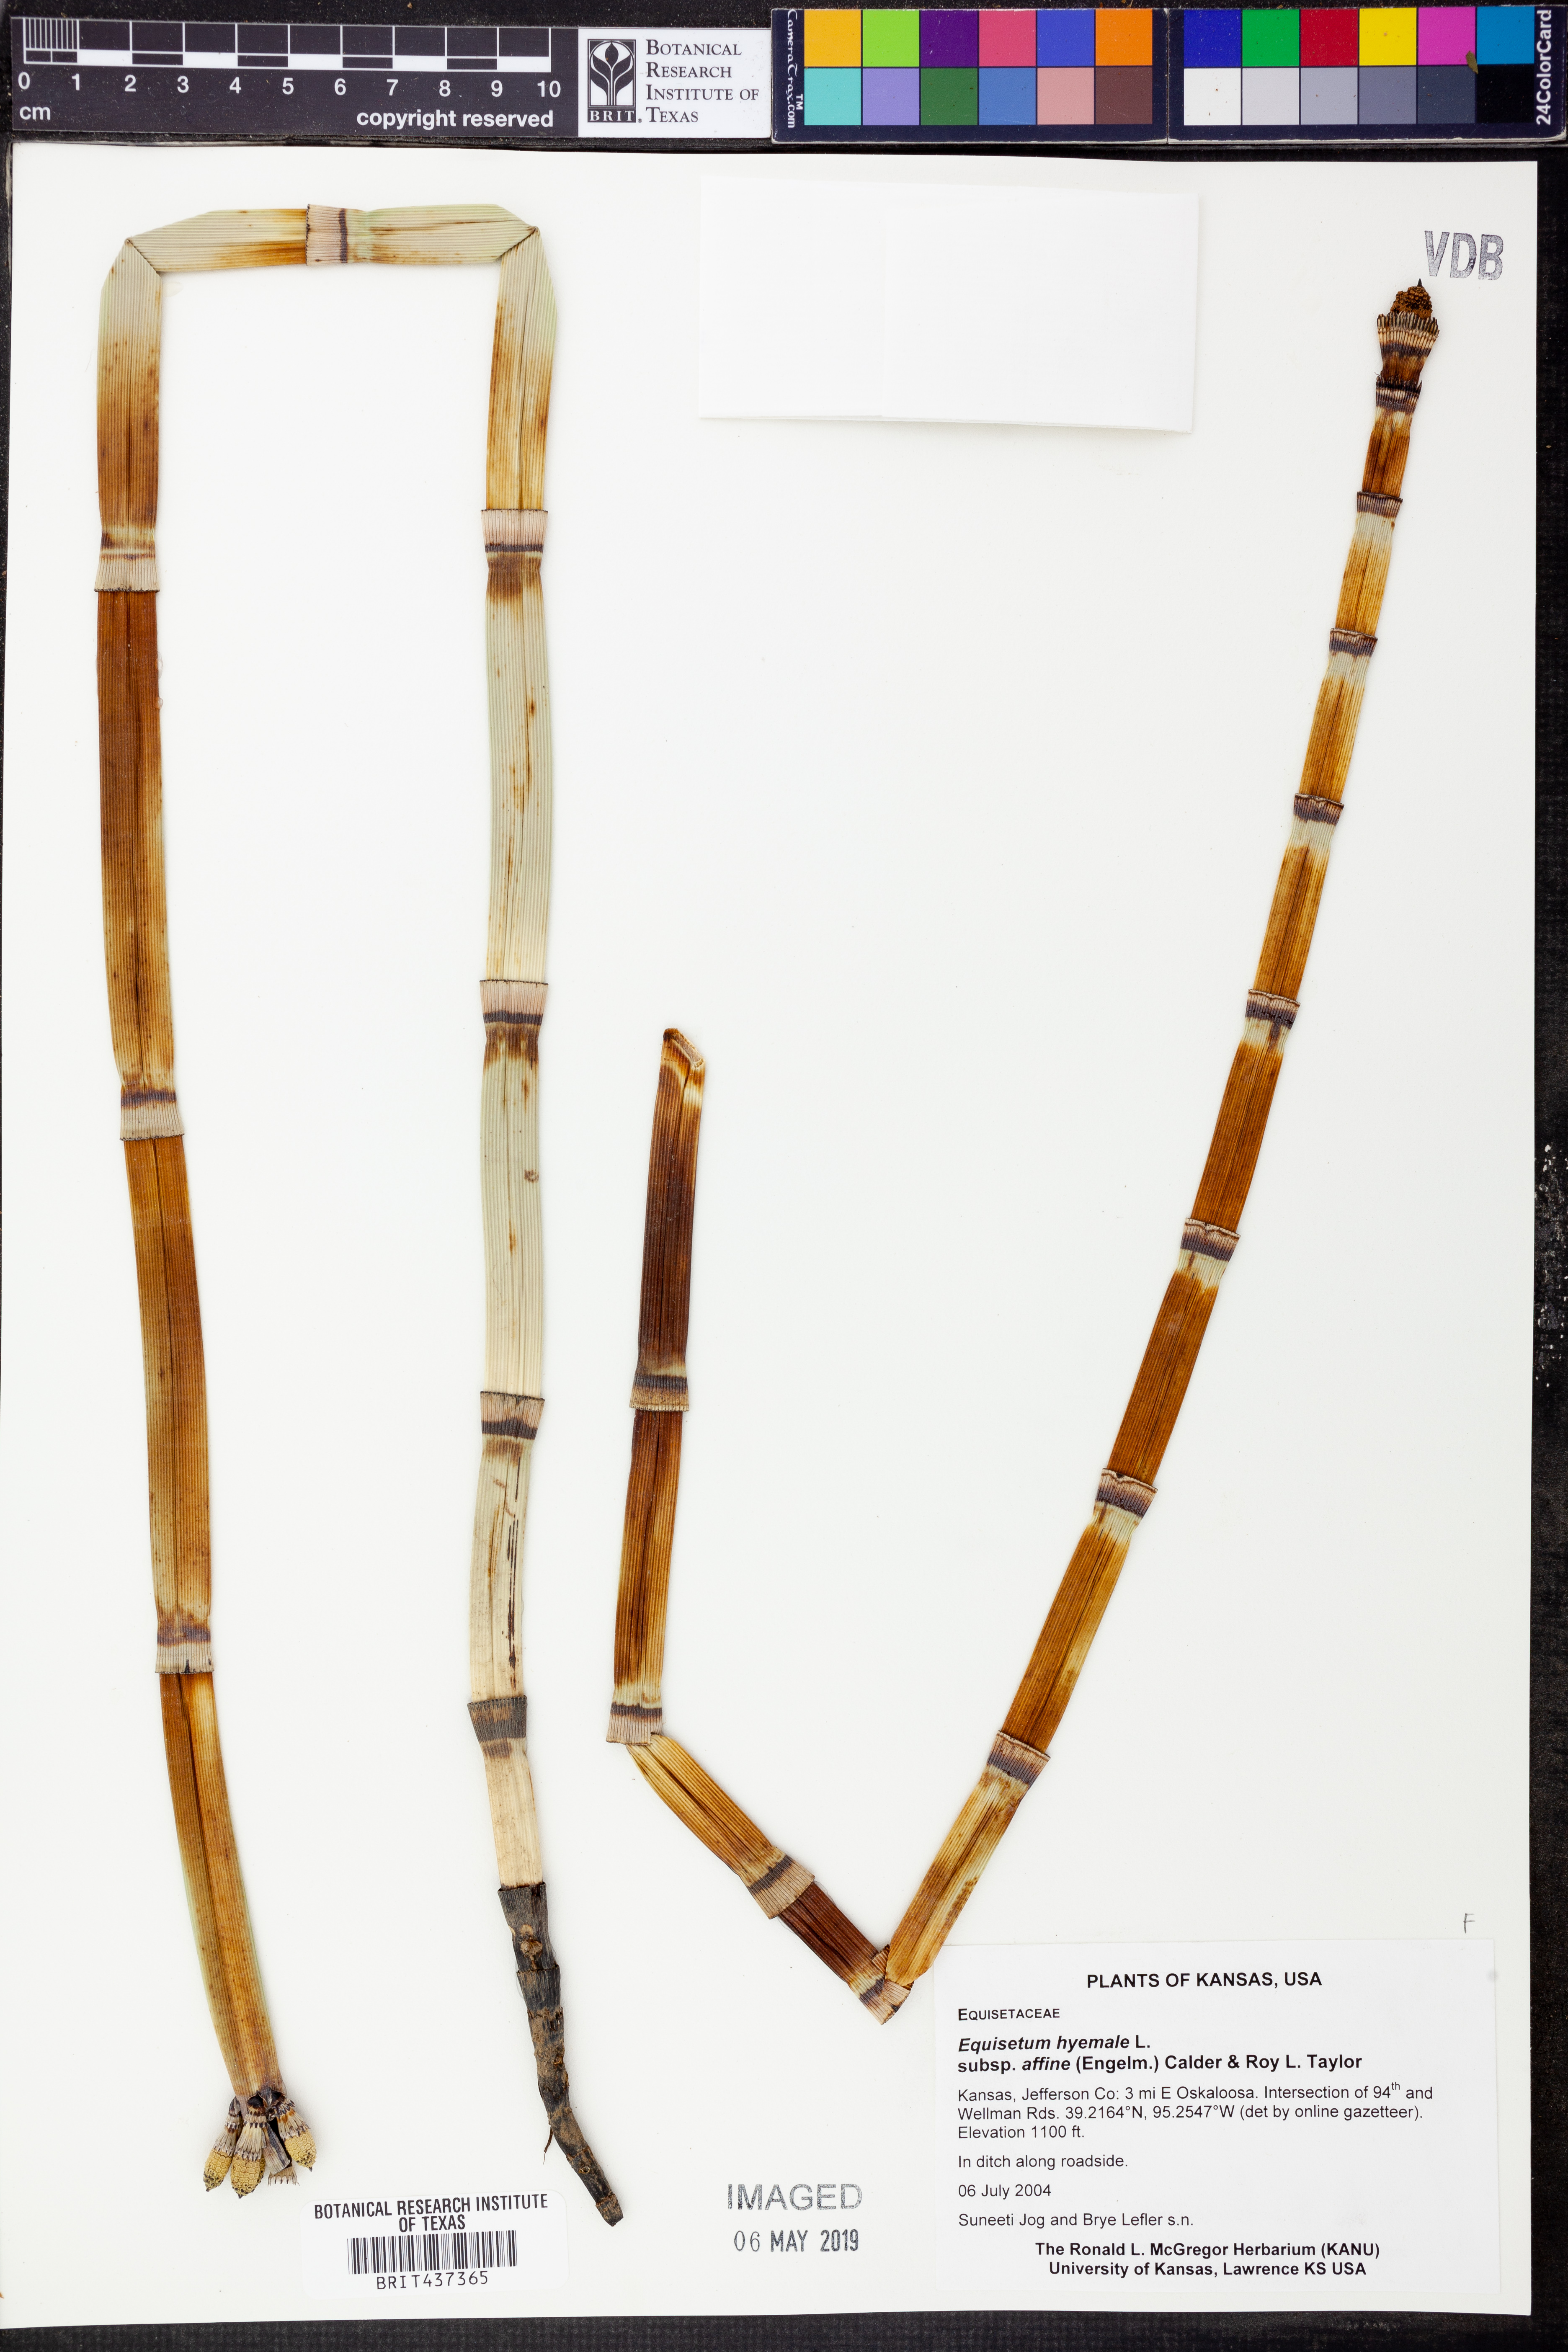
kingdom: Plantae
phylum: Tracheophyta
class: Polypodiopsida
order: Equisetales
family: Equisetaceae
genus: Equisetum
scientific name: Equisetum praealtum
